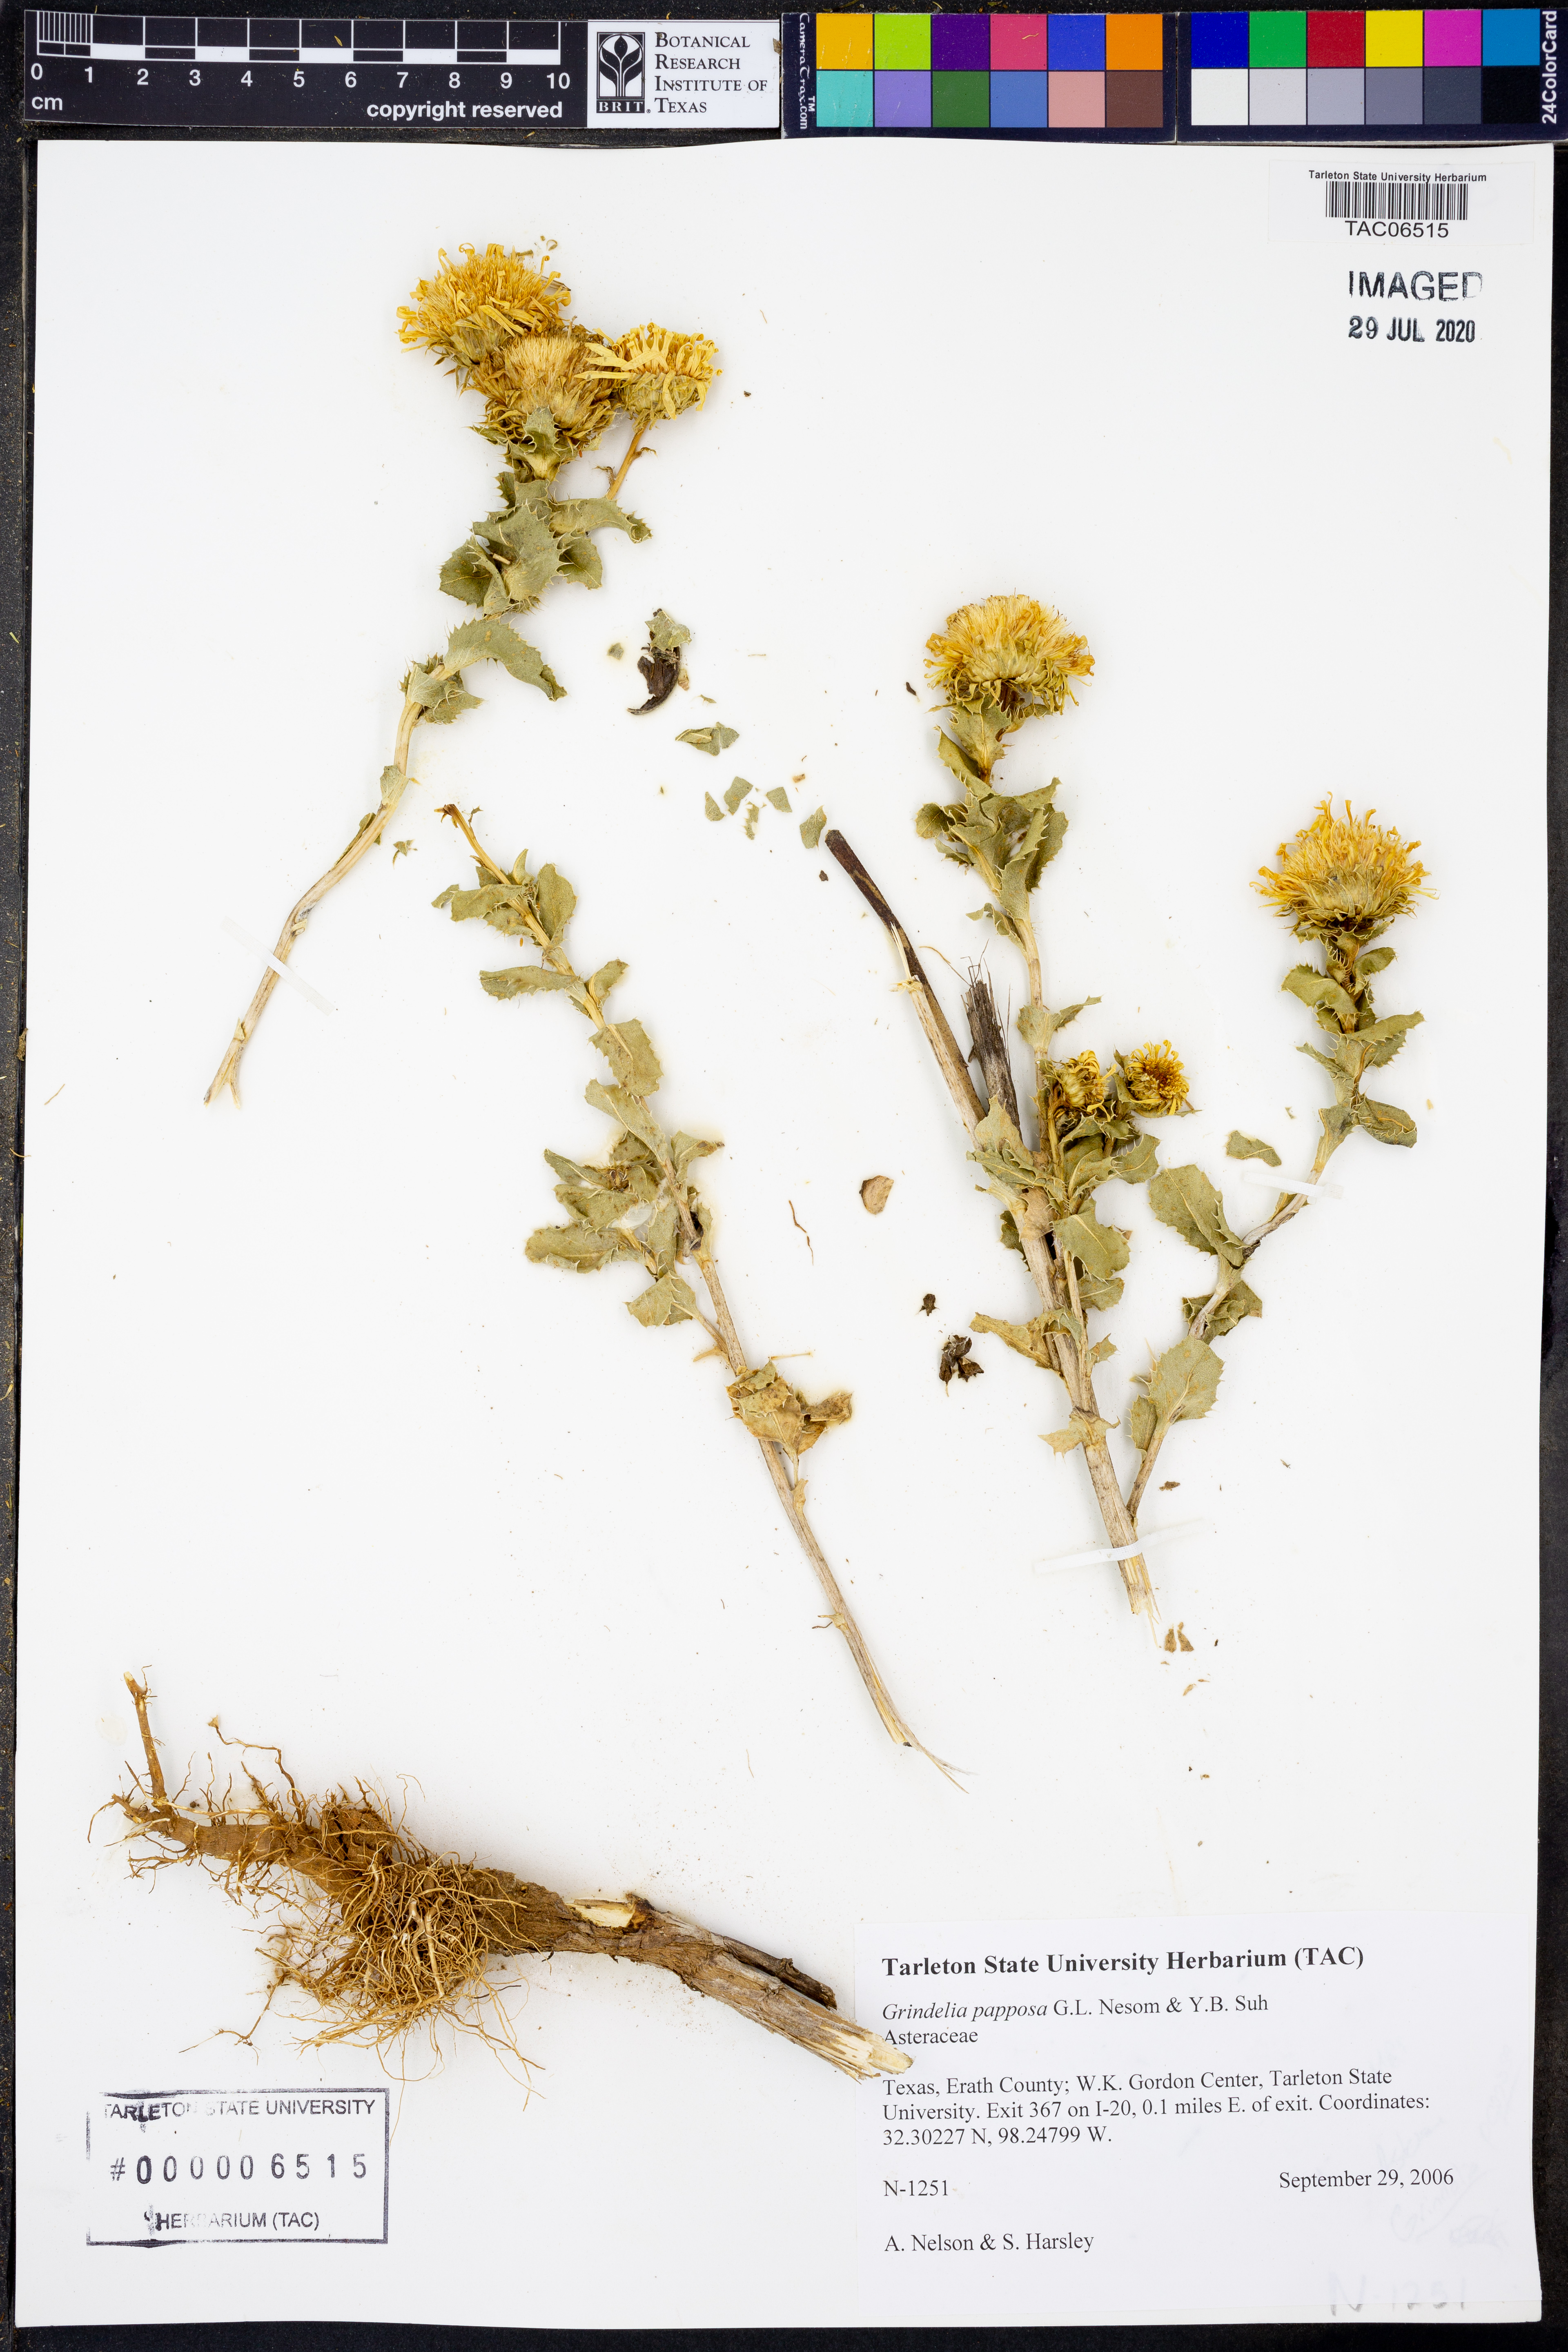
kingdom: Plantae
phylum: Tracheophyta
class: Magnoliopsida
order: Asterales
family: Asteraceae
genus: Grindelia
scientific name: Grindelia ciliata
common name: Goldenweed
